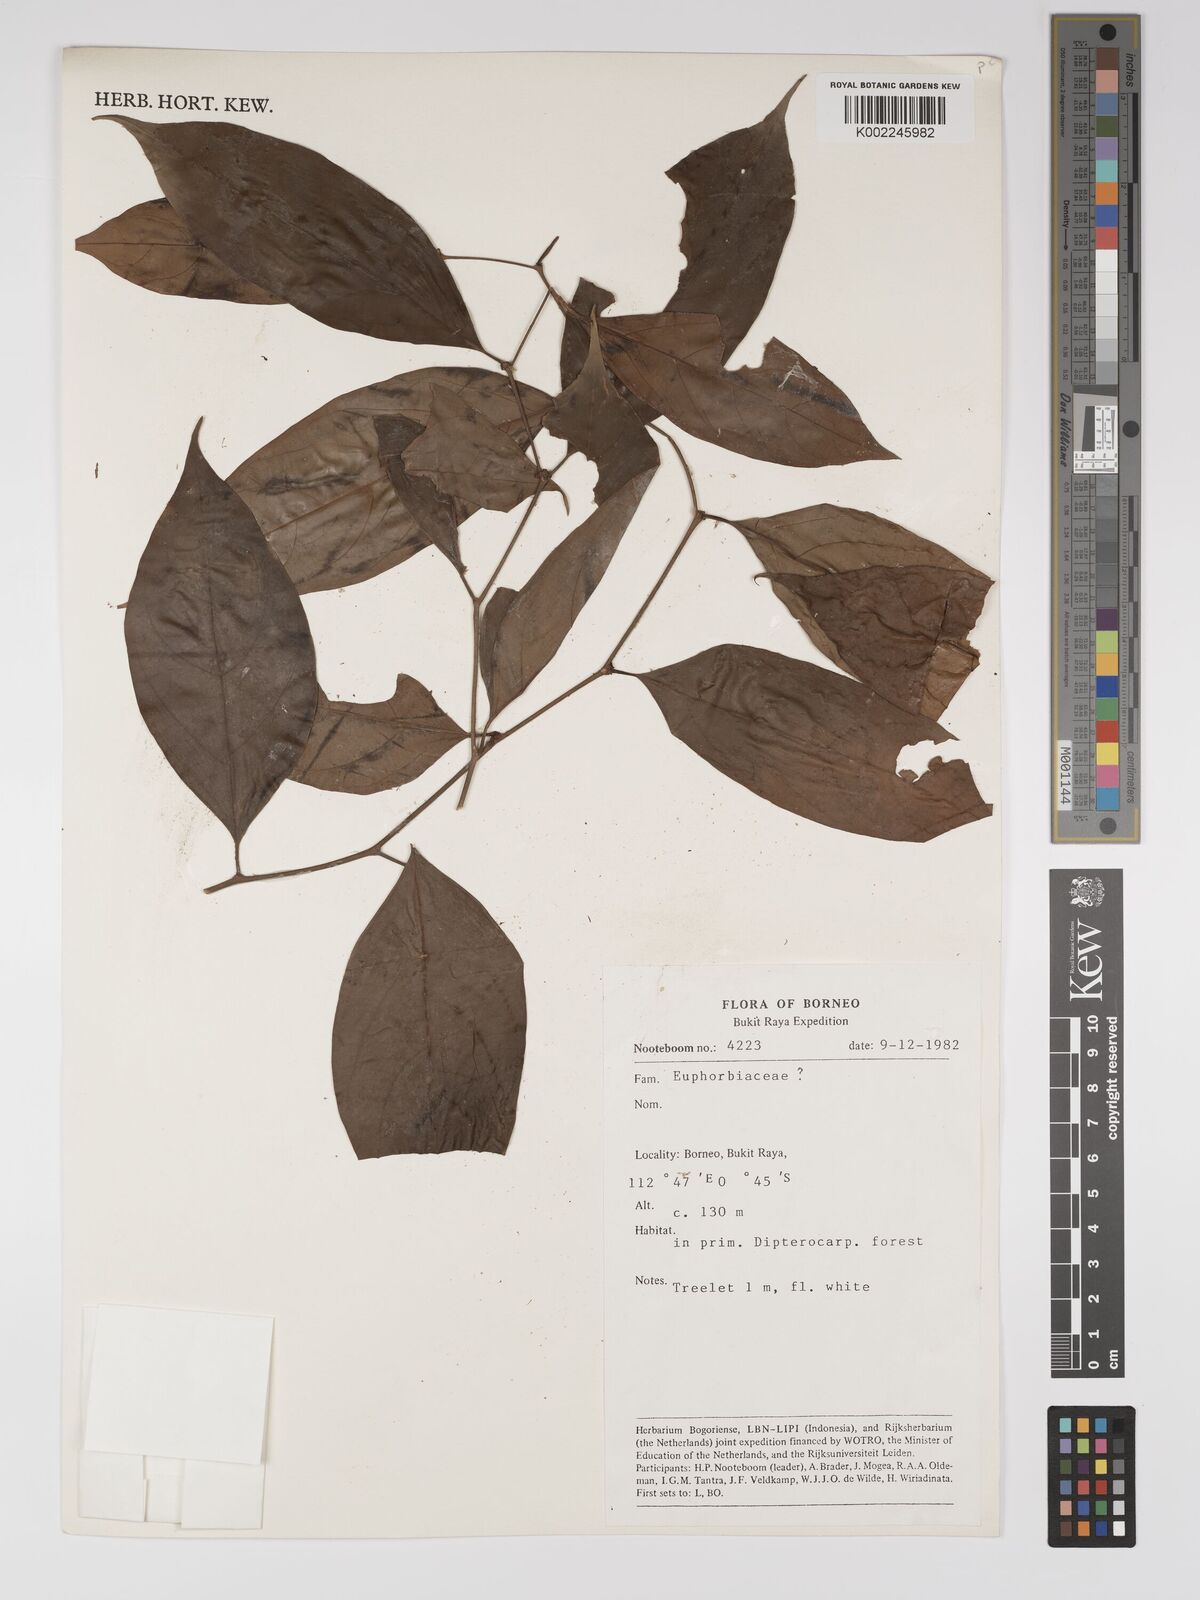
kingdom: Plantae
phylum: Tracheophyta
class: Magnoliopsida
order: Malpighiales
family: Euphorbiaceae
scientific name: Euphorbiaceae
